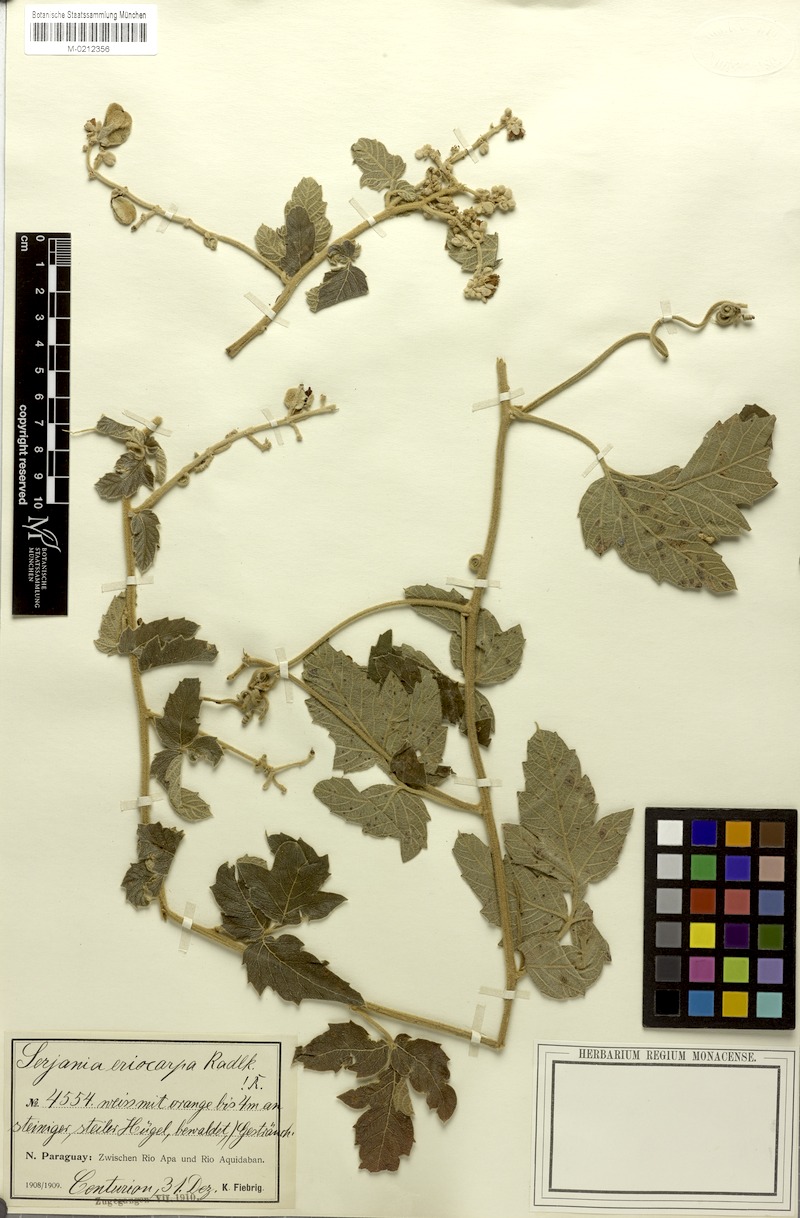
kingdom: Plantae
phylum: Tracheophyta
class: Magnoliopsida
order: Sapindales
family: Sapindaceae
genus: Serjania
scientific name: Serjania eriocarpa
